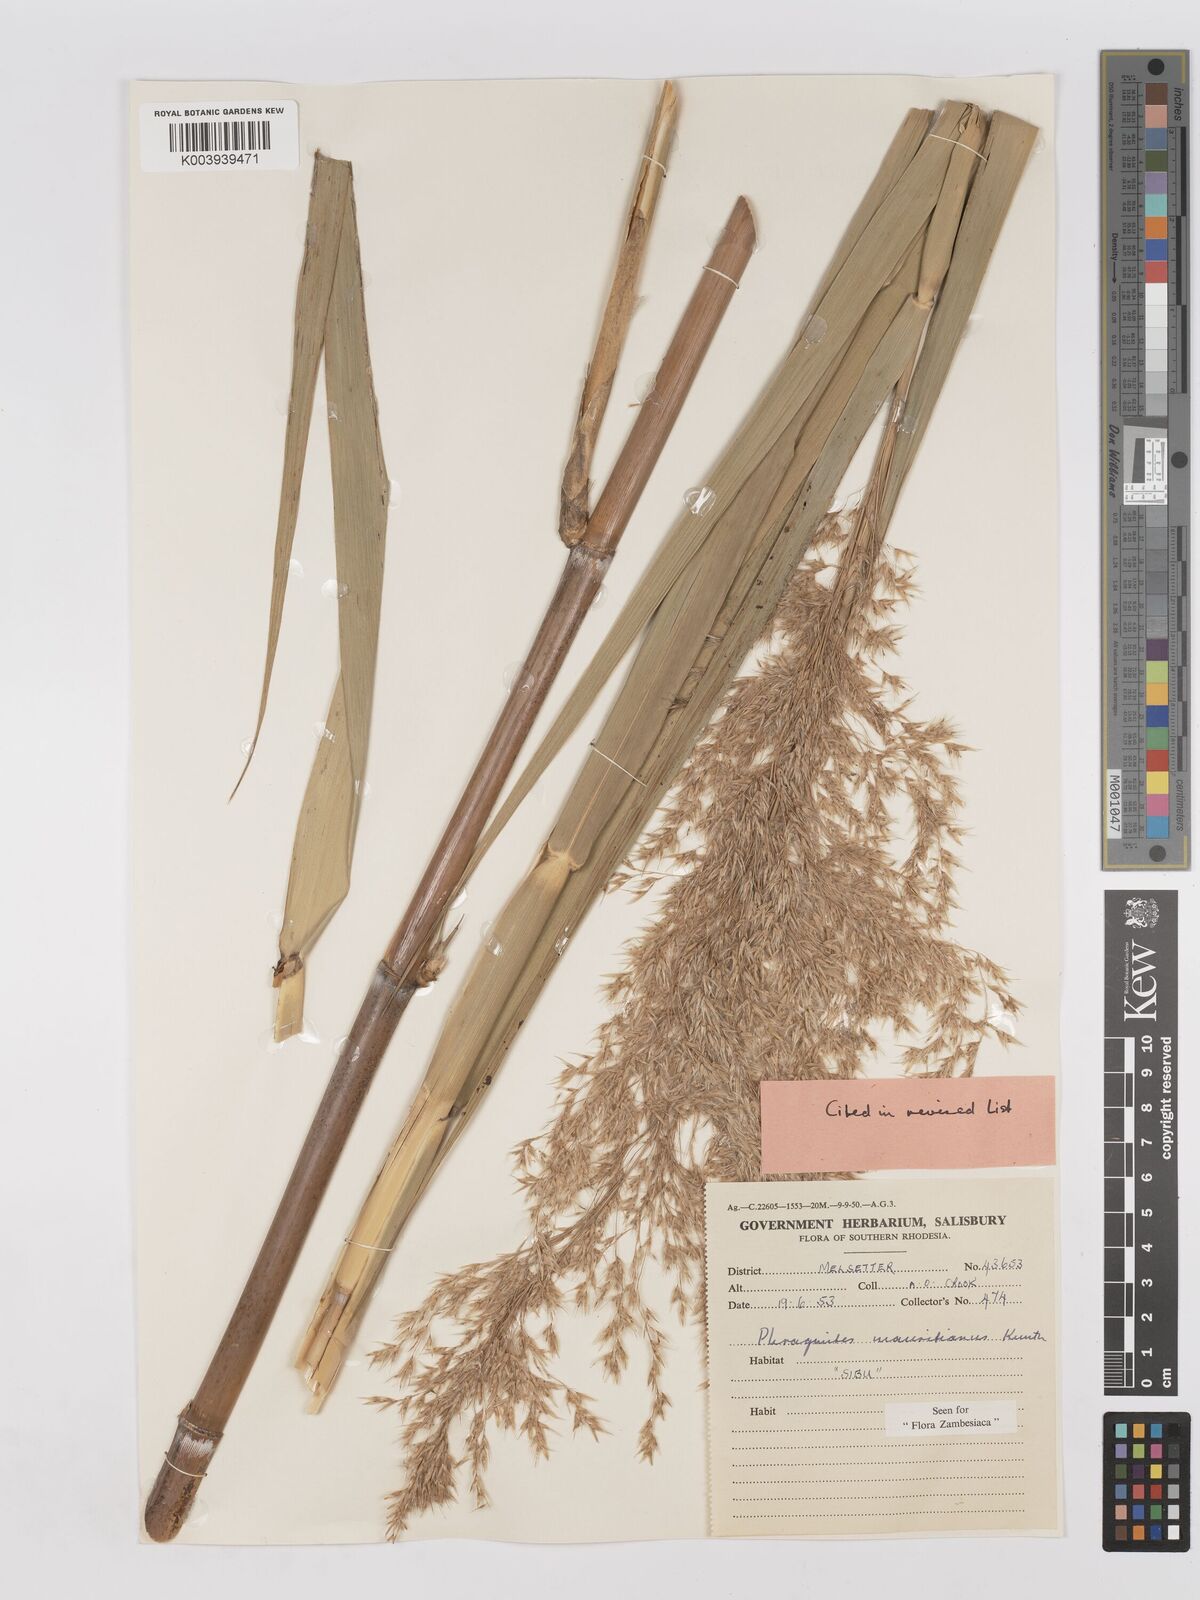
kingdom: Plantae
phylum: Tracheophyta
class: Liliopsida
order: Poales
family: Poaceae
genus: Phragmites
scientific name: Phragmites mauritianus
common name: Reed grass
